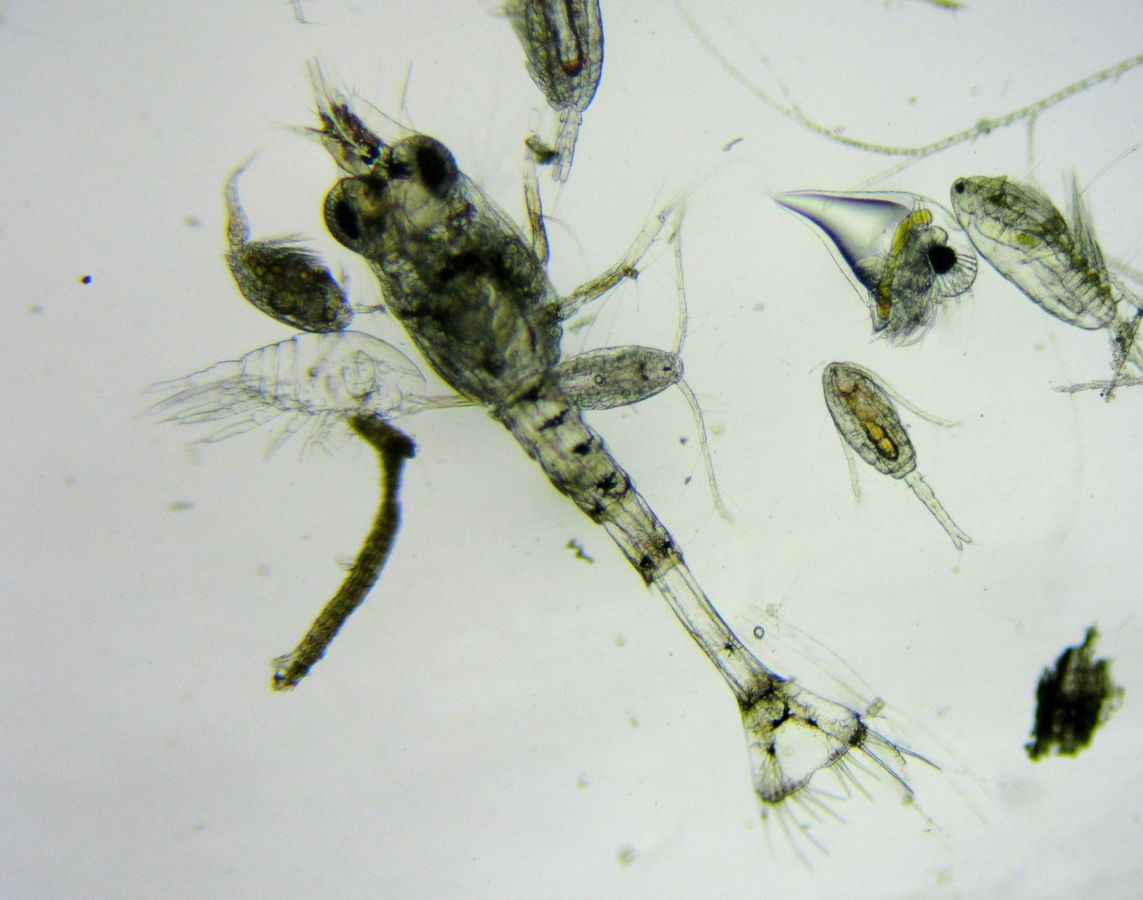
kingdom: Animalia
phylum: Arthropoda
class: Malacostraca
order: Decapoda
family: Crangonidae
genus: Crangon
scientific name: Crangon crangon
